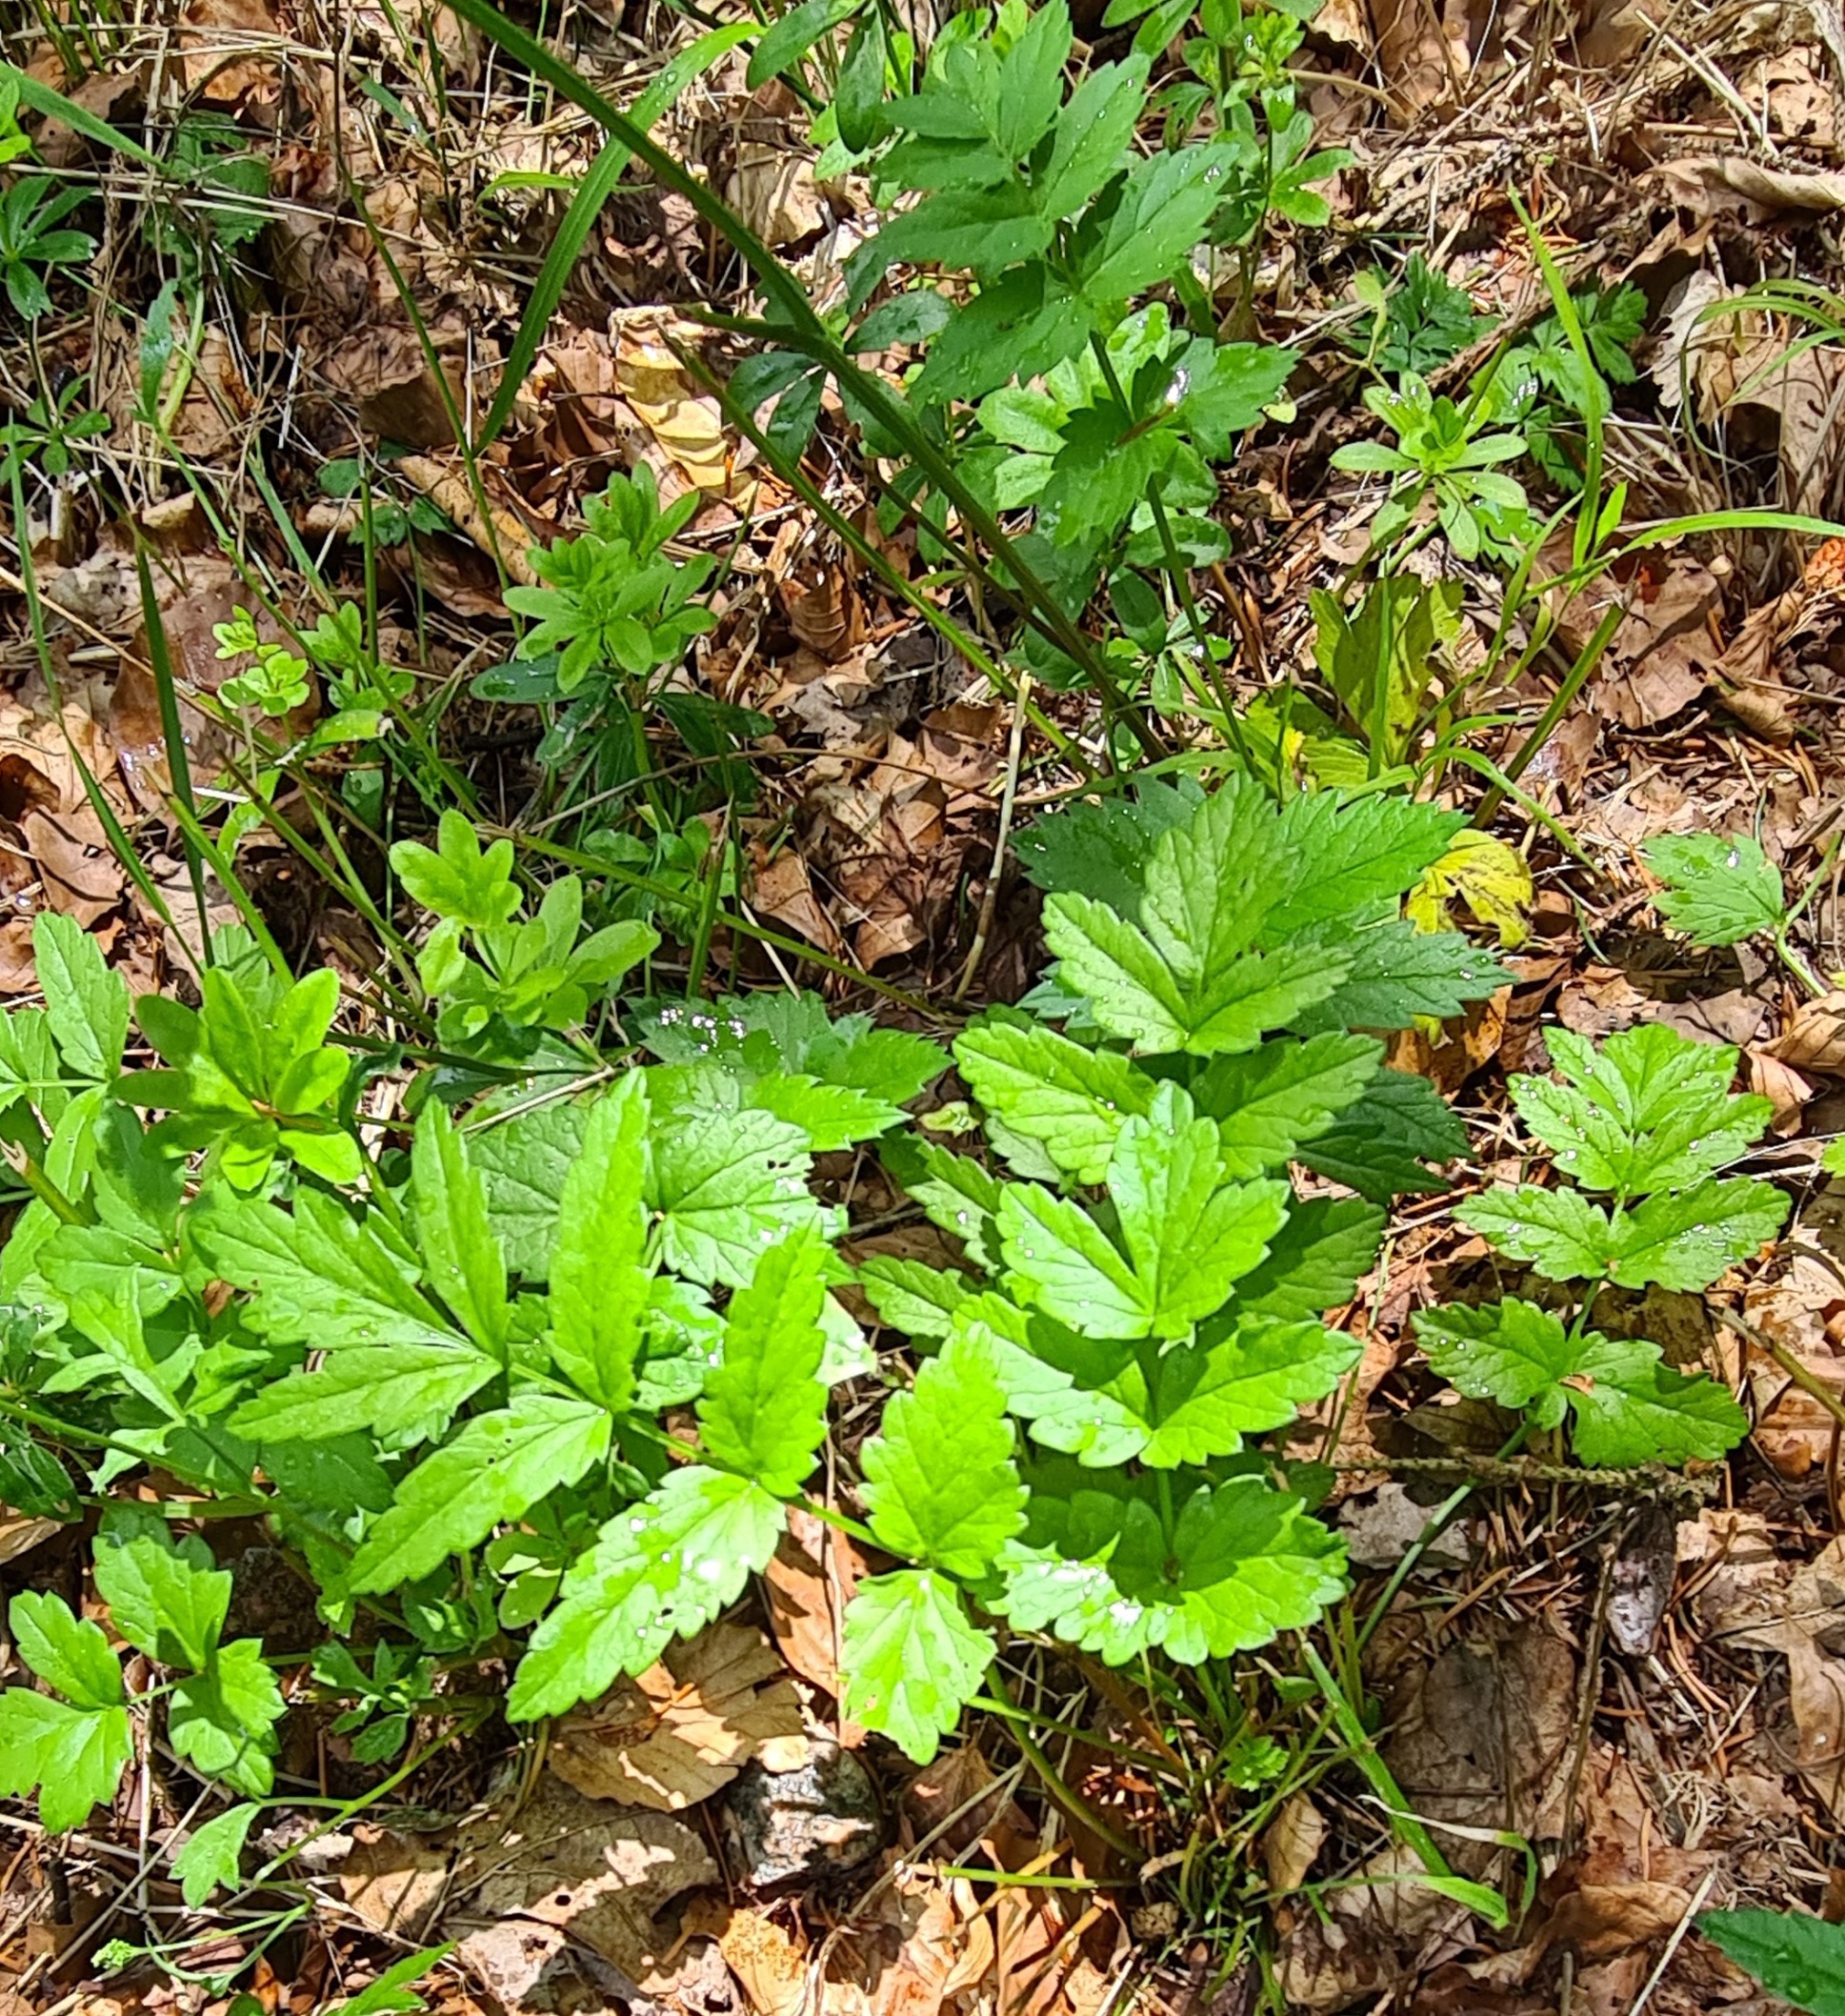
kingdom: Plantae
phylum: Tracheophyta
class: Magnoliopsida
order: Apiales
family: Apiaceae
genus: Pimpinella
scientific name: Pimpinella major
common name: Stor pimpinelle
